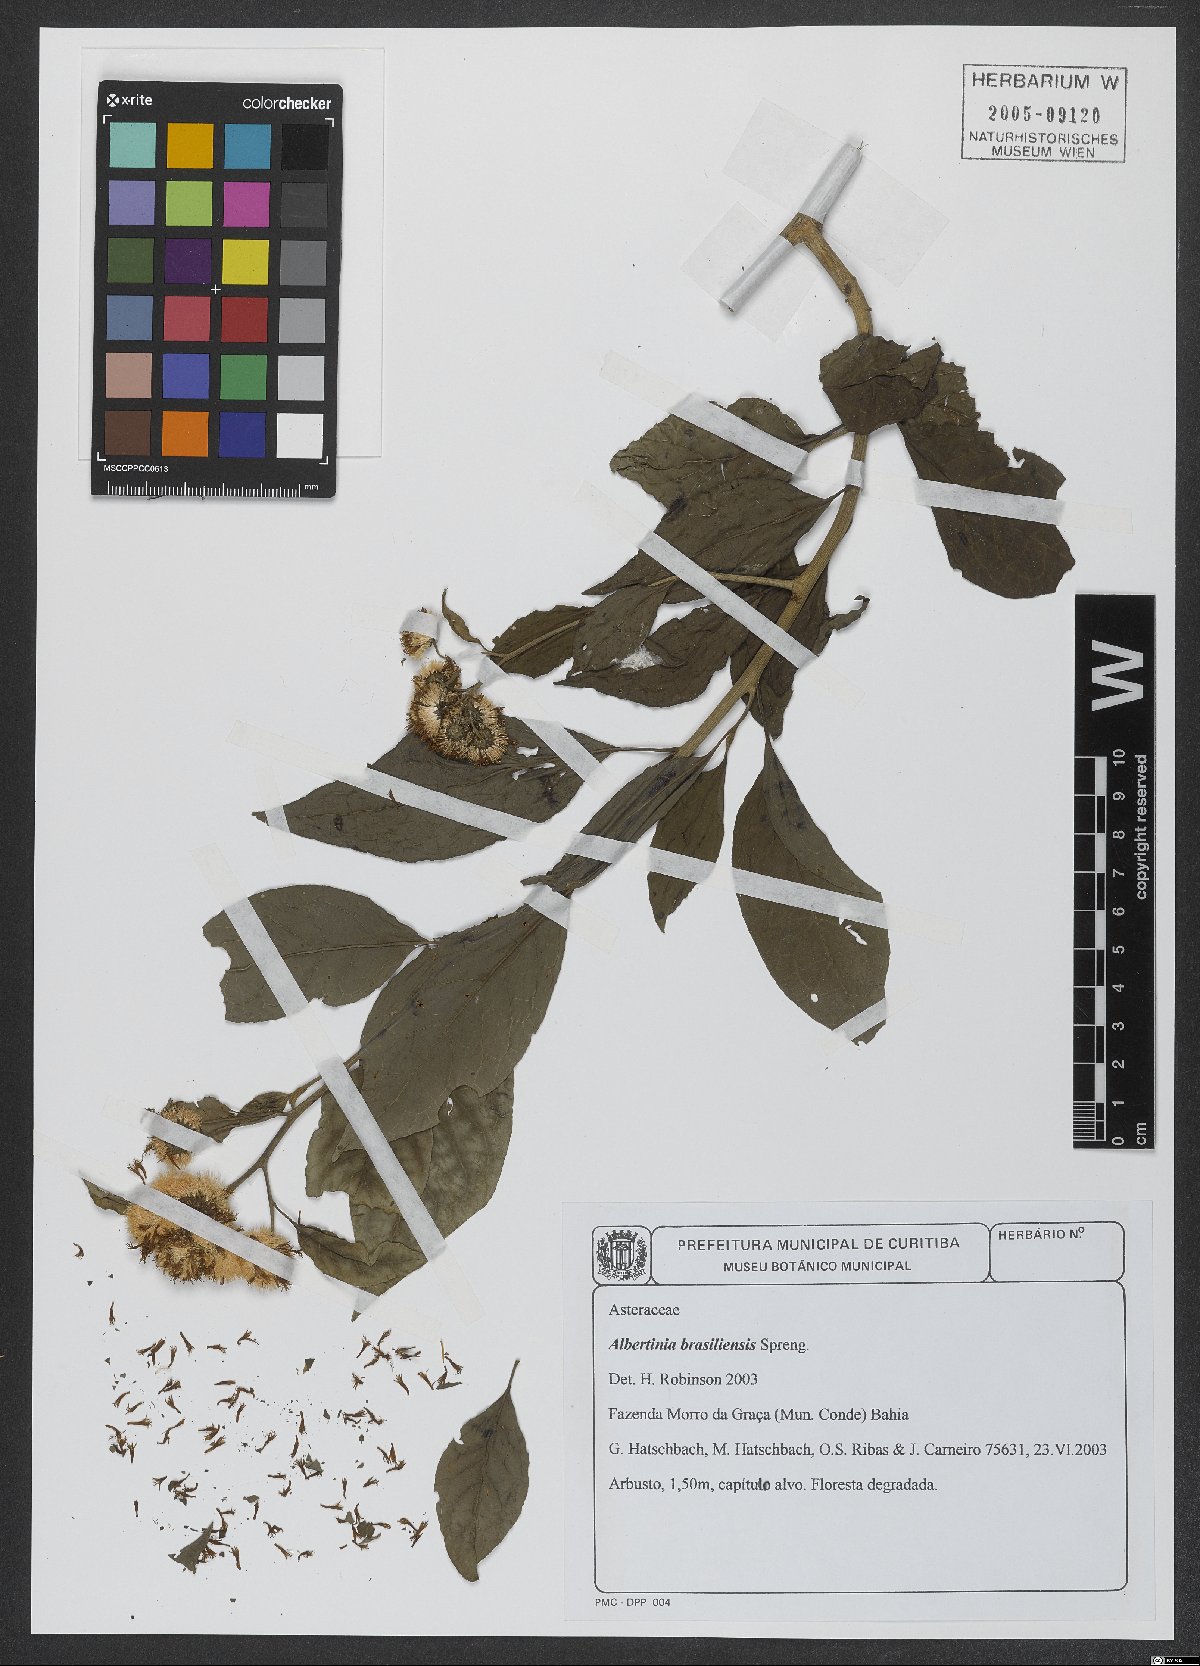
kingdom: Plantae
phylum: Tracheophyta
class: Magnoliopsida
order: Asterales
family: Asteraceae
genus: Albertinia
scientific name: Albertinia brasiliensis
